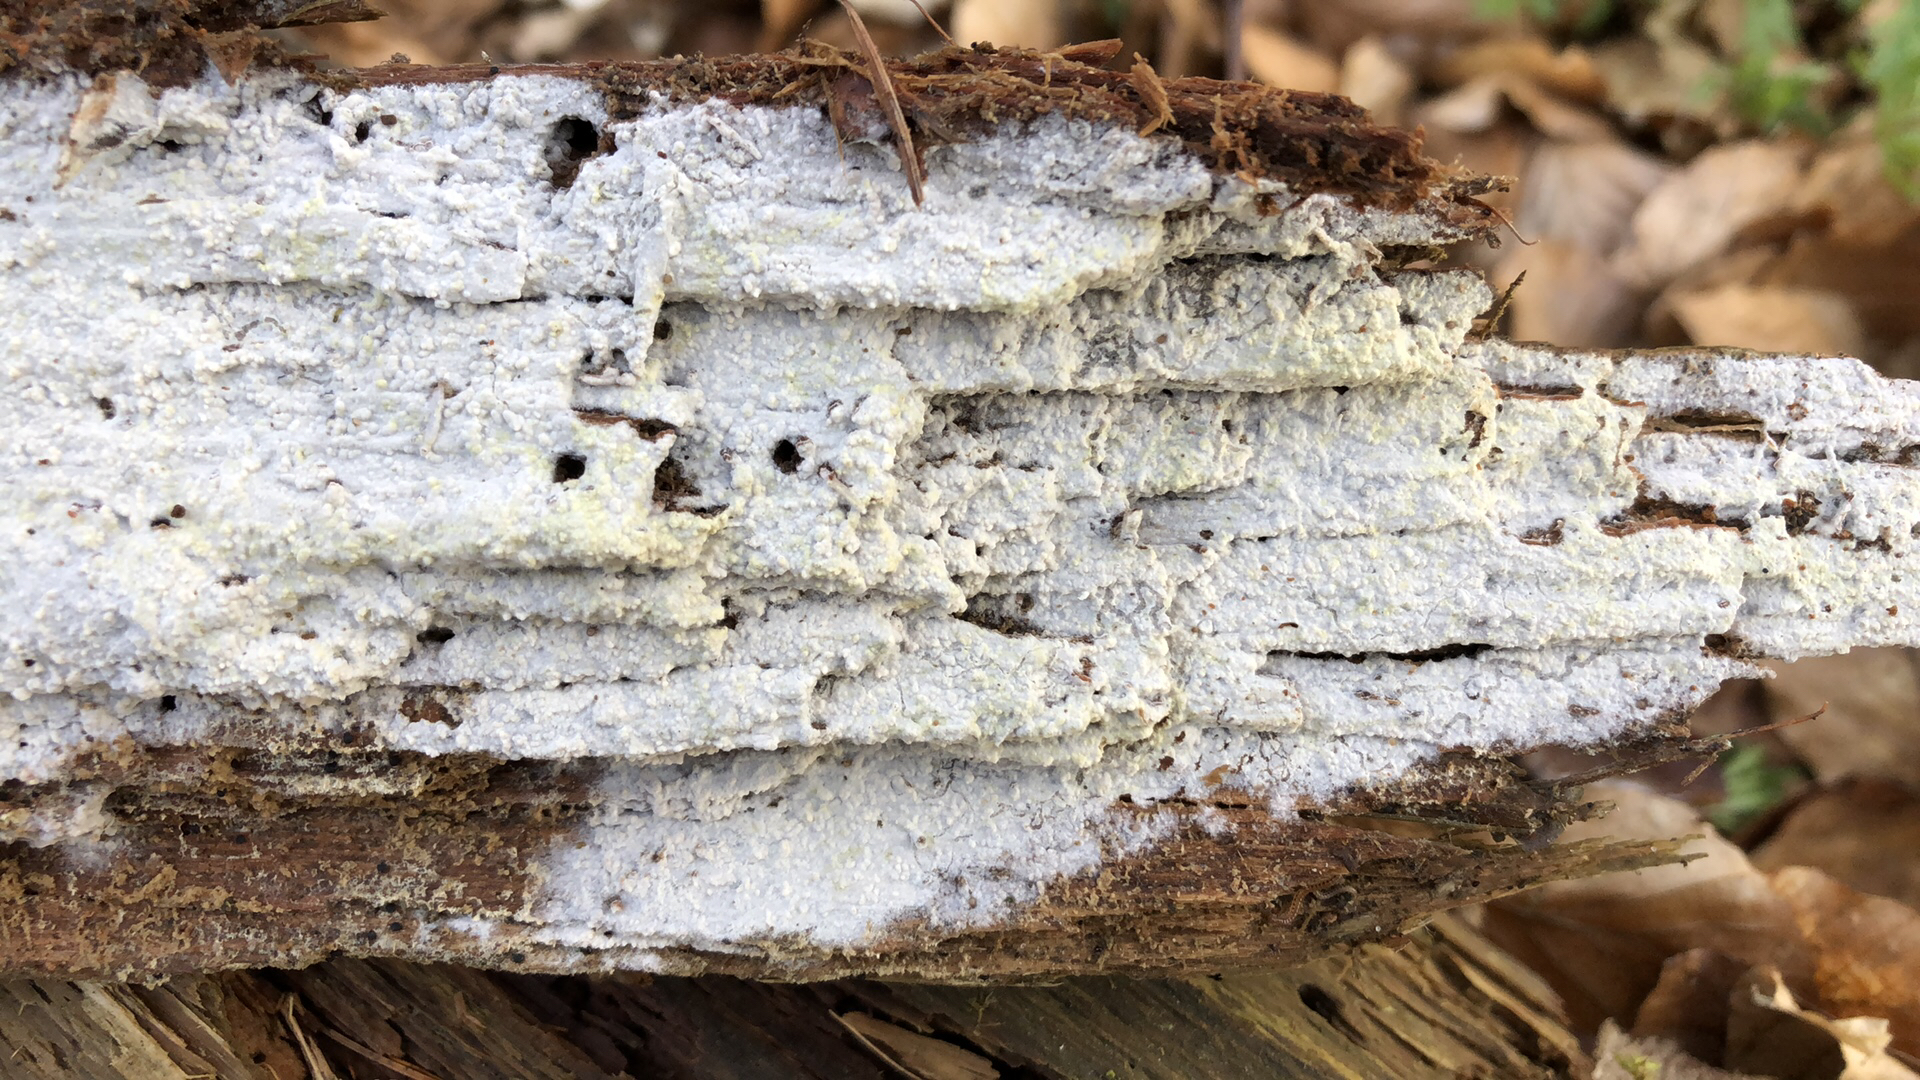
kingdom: Fungi
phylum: Basidiomycota
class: Agaricomycetes
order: Atheliales
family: Atheliaceae
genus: Leptosporomyces
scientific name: Leptosporomyces fuscostratus
